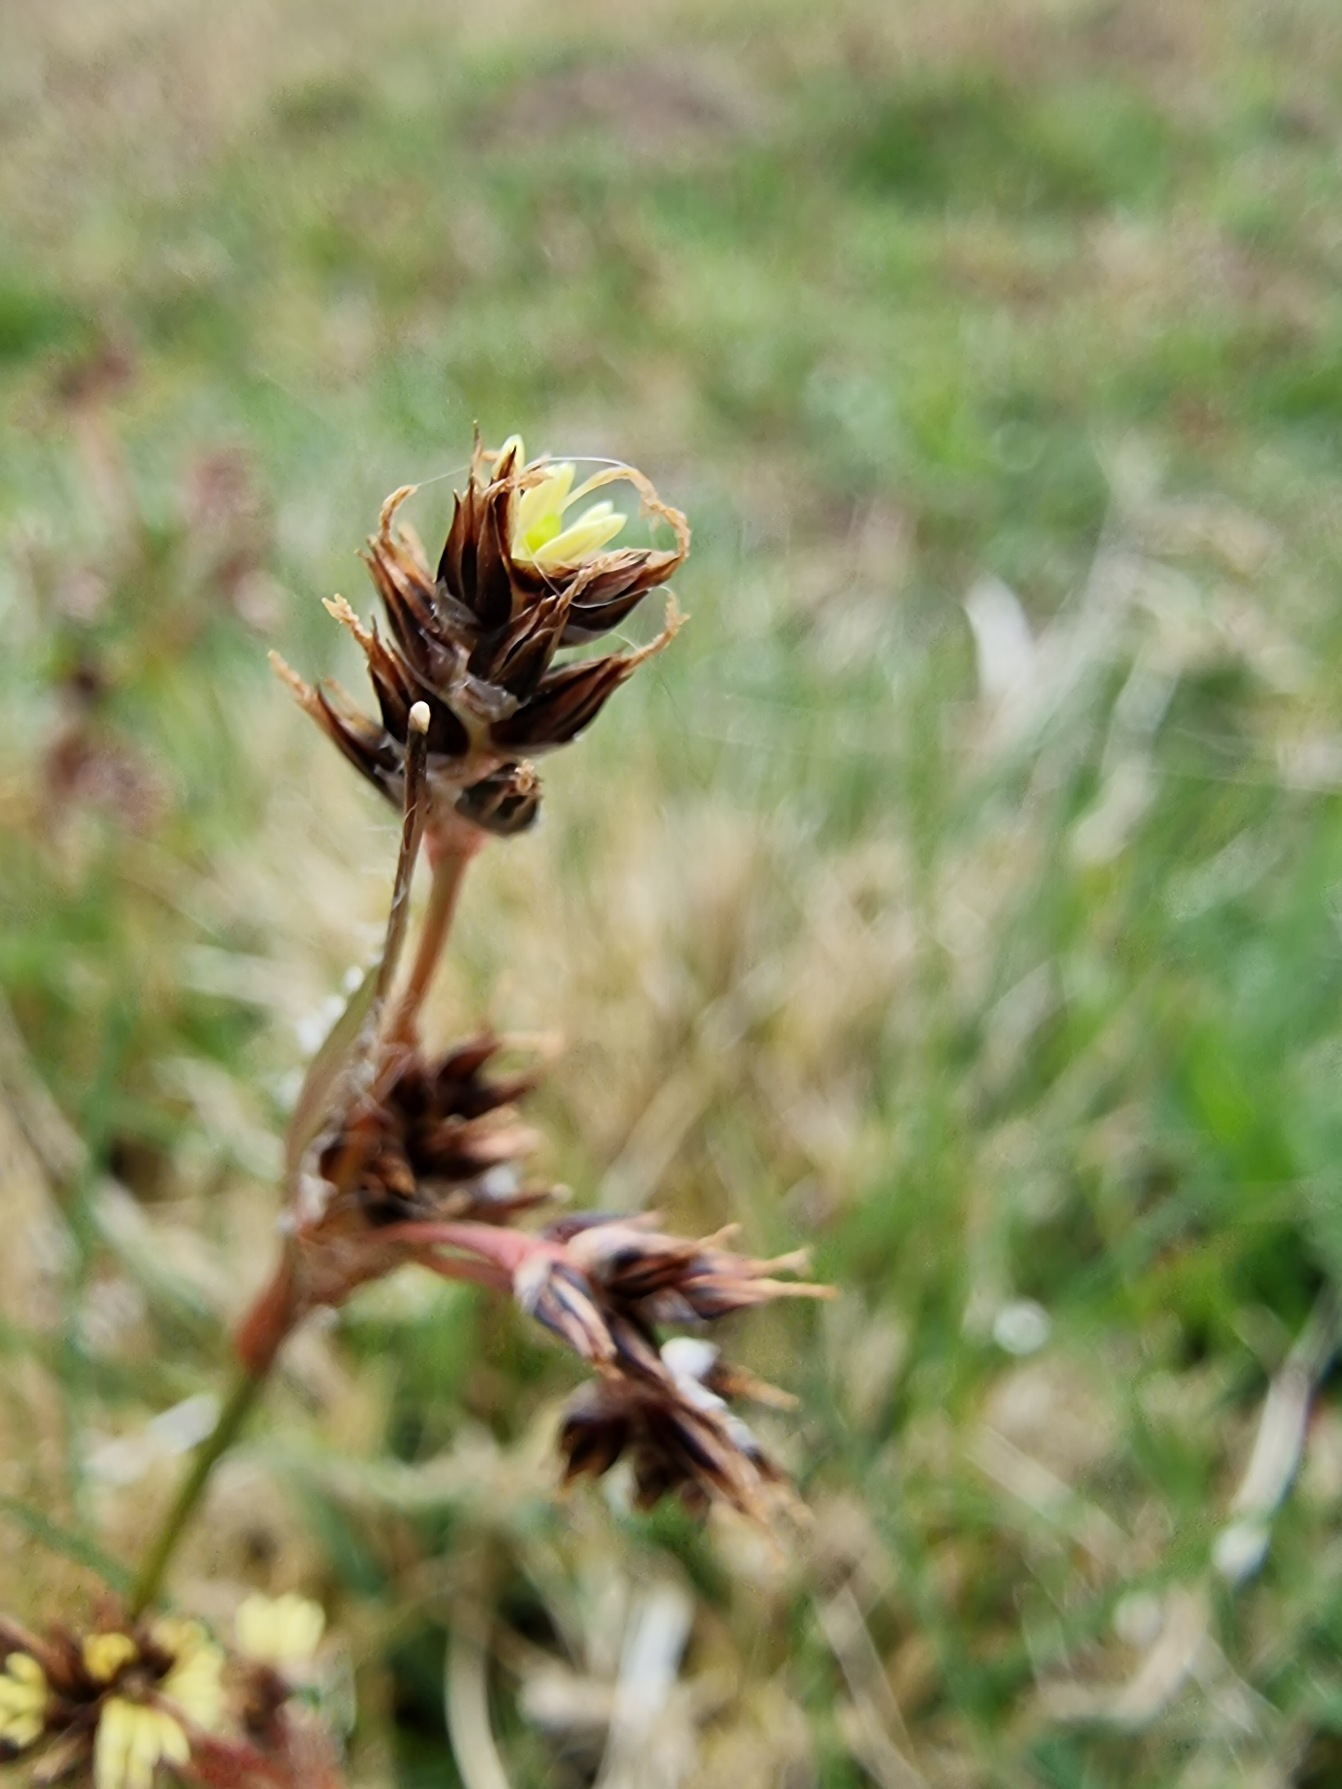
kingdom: Plantae
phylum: Tracheophyta
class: Liliopsida
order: Poales
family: Juncaceae
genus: Luzula
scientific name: Luzula campestris
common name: Mark-frytle
